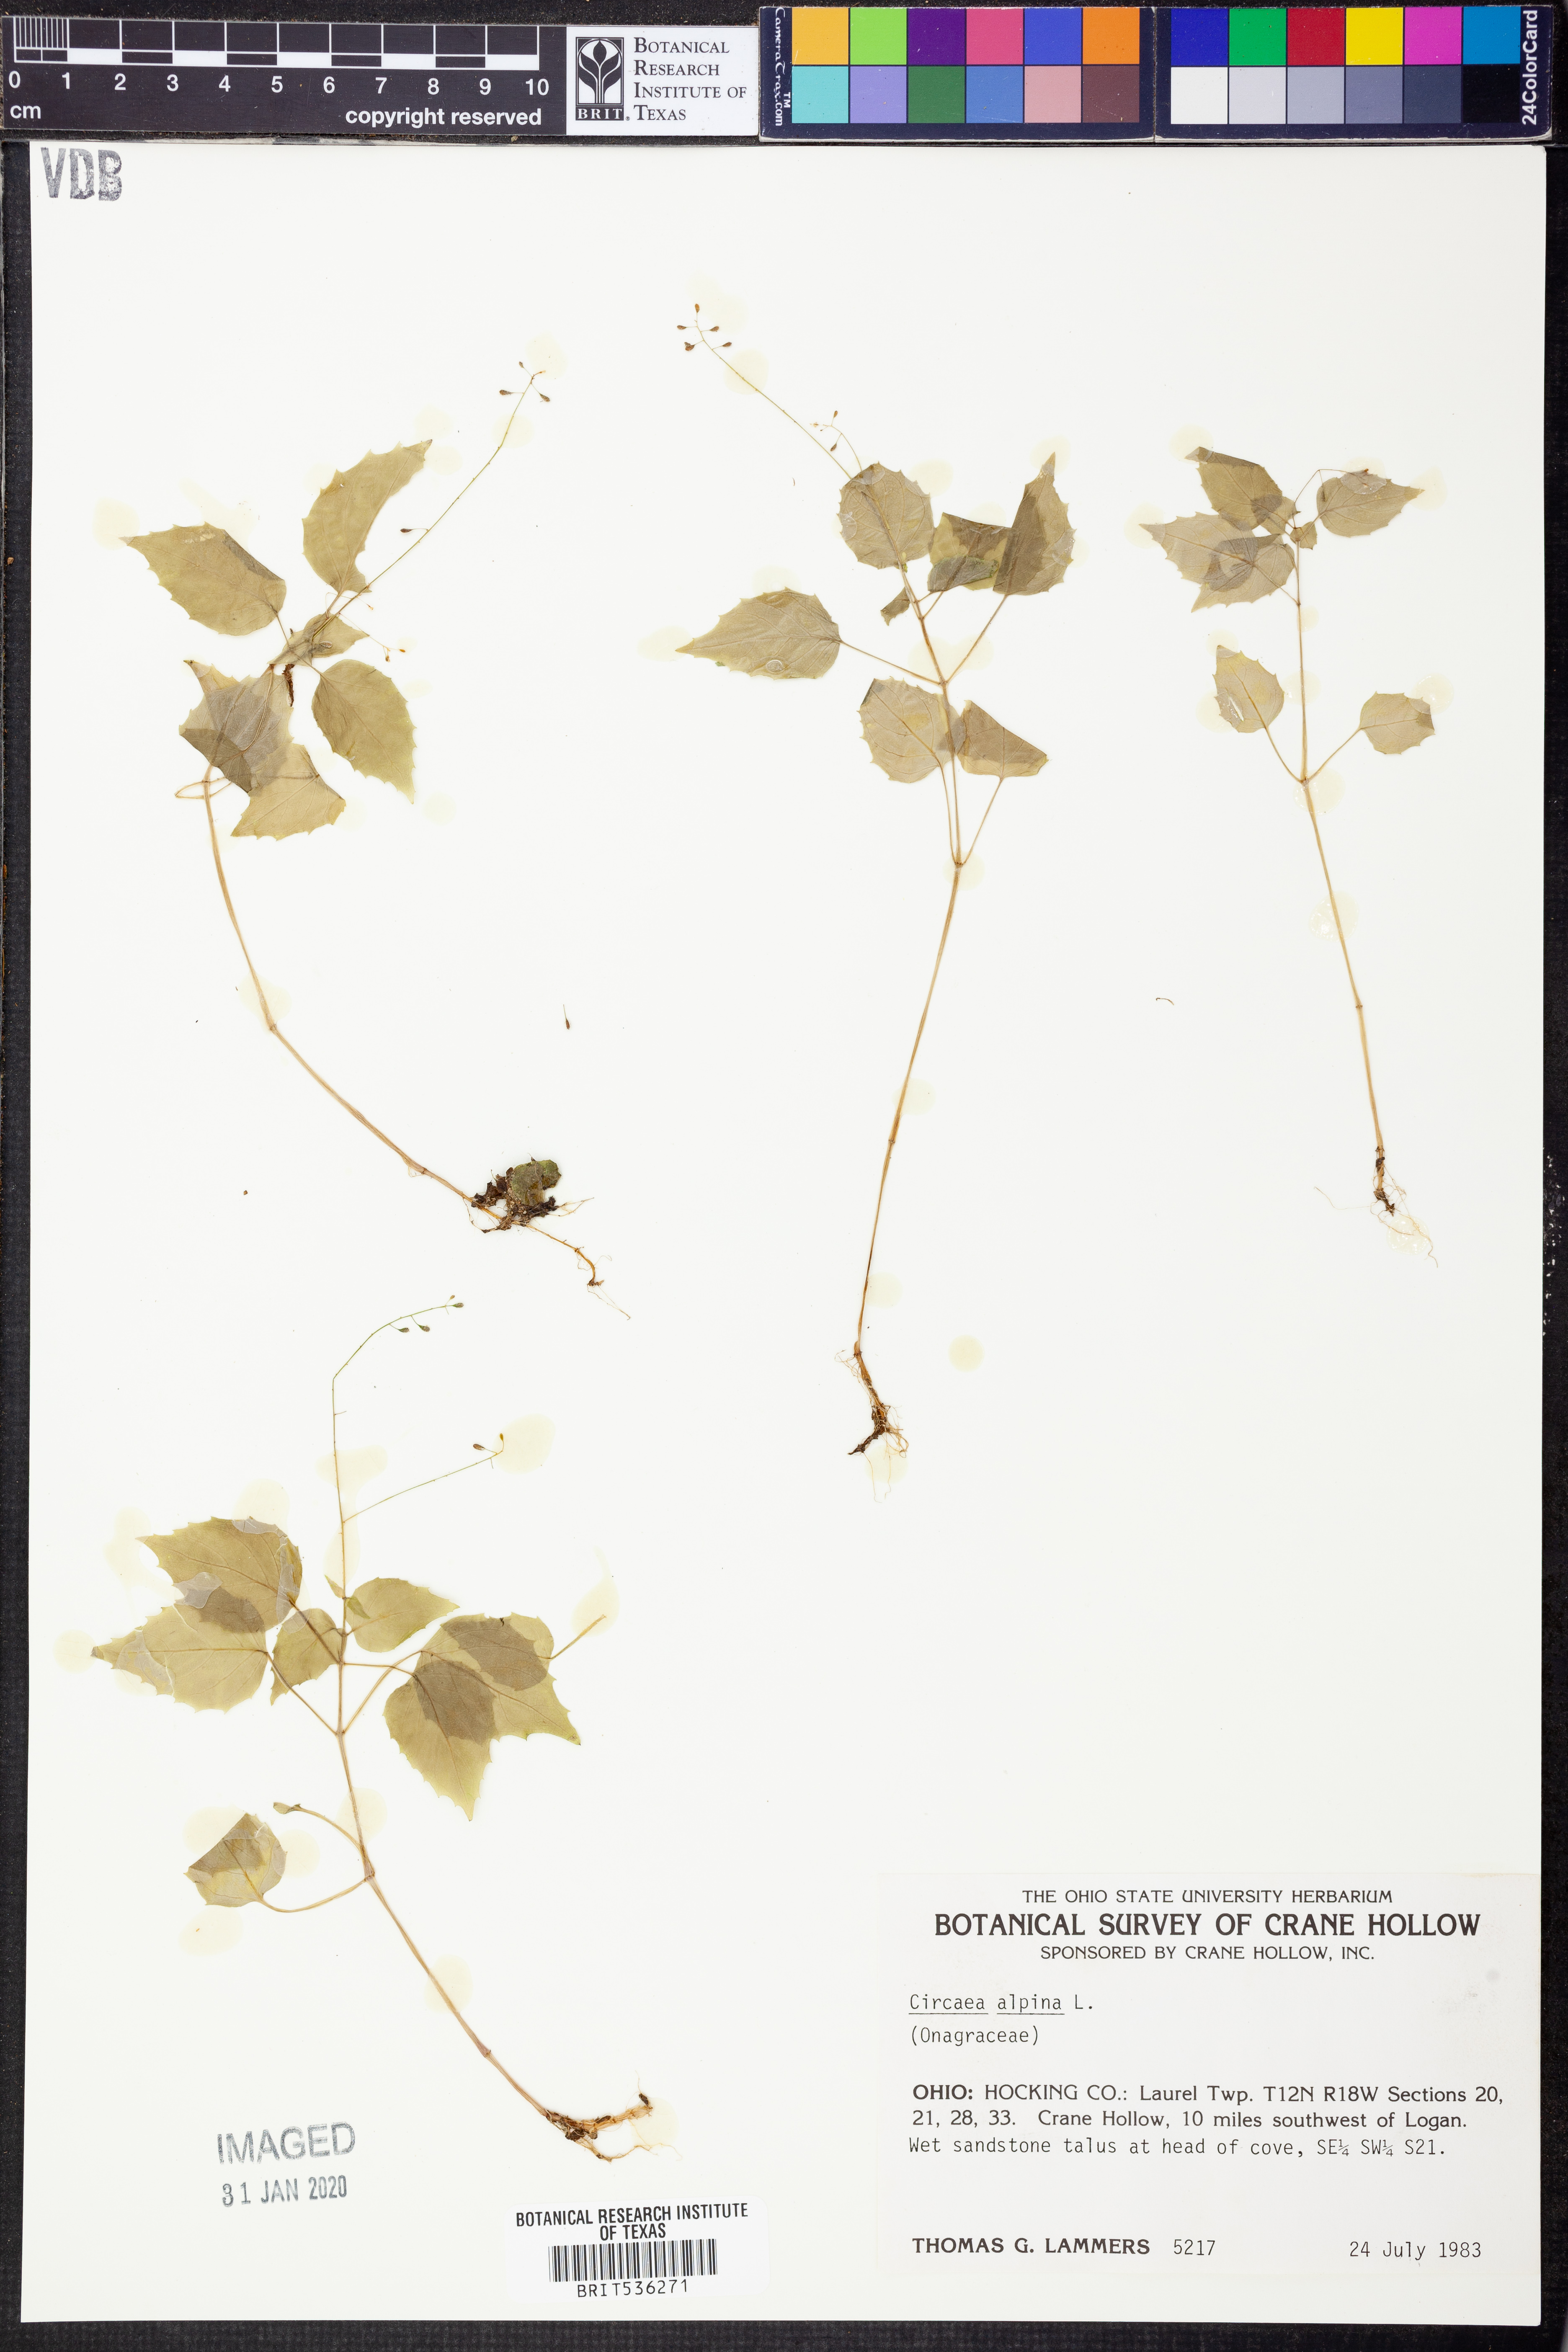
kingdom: Plantae
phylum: Tracheophyta
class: Magnoliopsida
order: Myrtales
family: Onagraceae
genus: Circaea
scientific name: Circaea alpina
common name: Alpine enchanter's-nightshade
